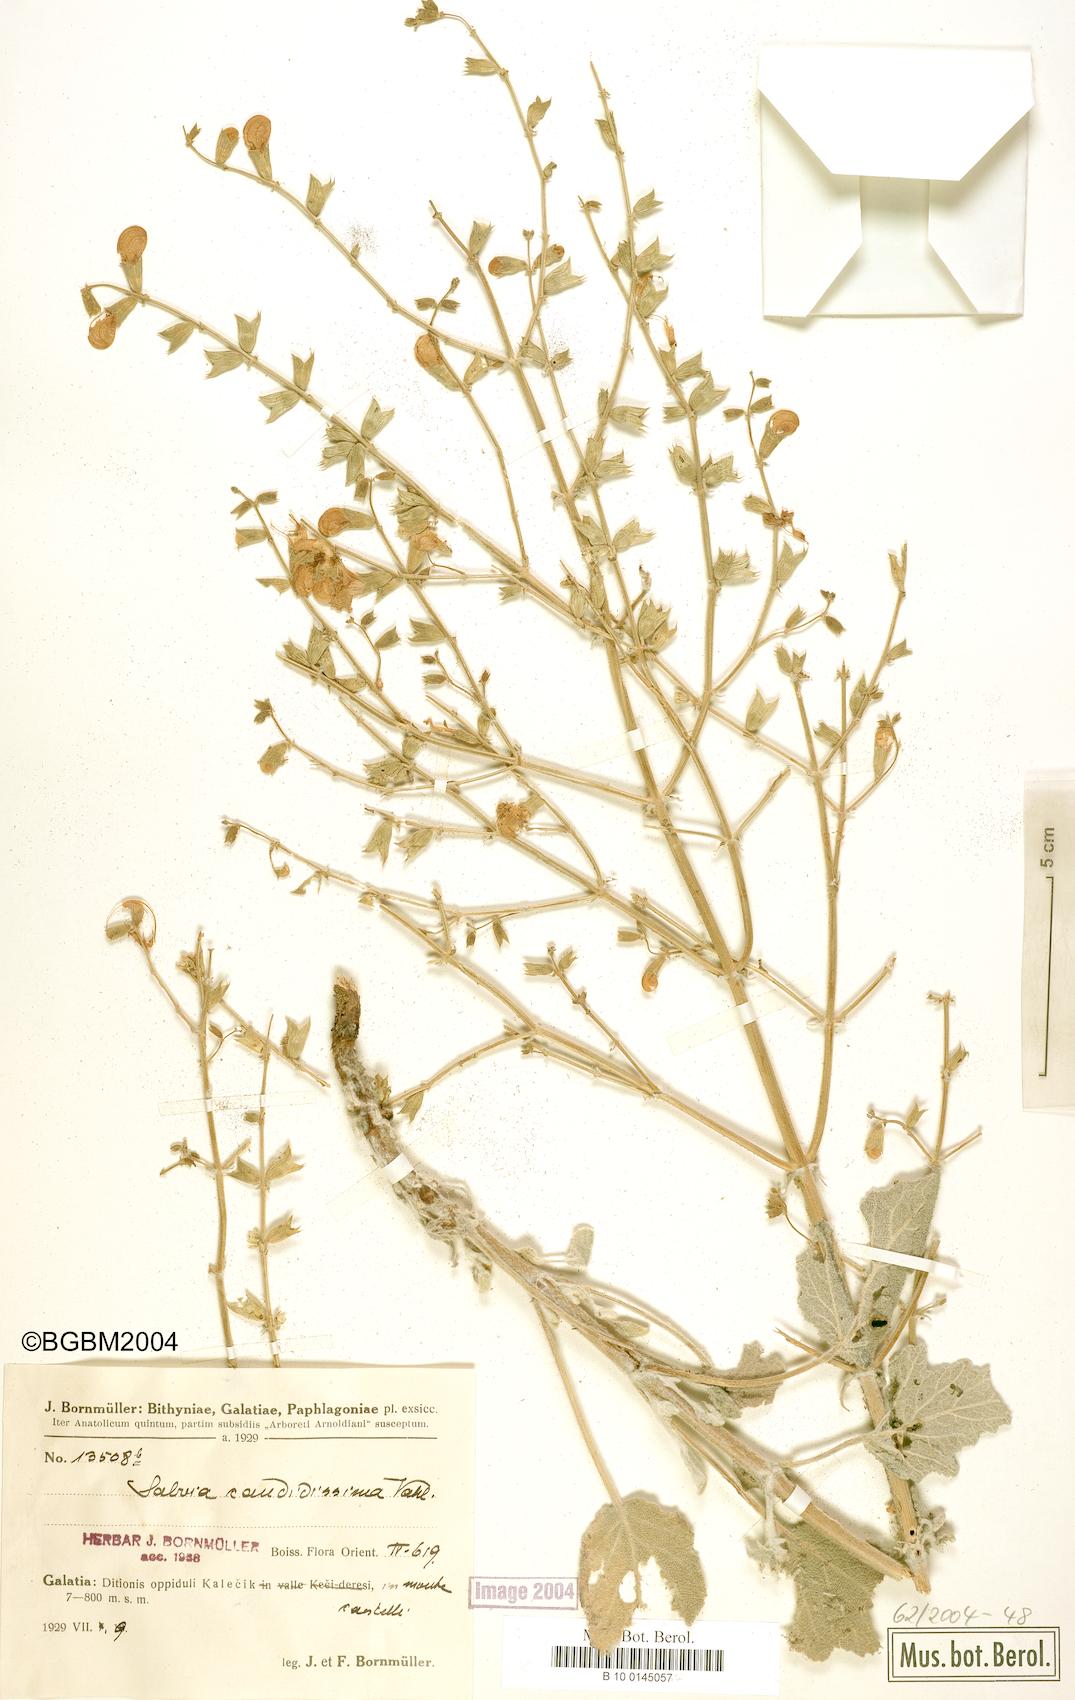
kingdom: Plantae
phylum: Tracheophyta
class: Magnoliopsida
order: Lamiales
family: Lamiaceae
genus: Salvia
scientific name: Salvia candidissima
